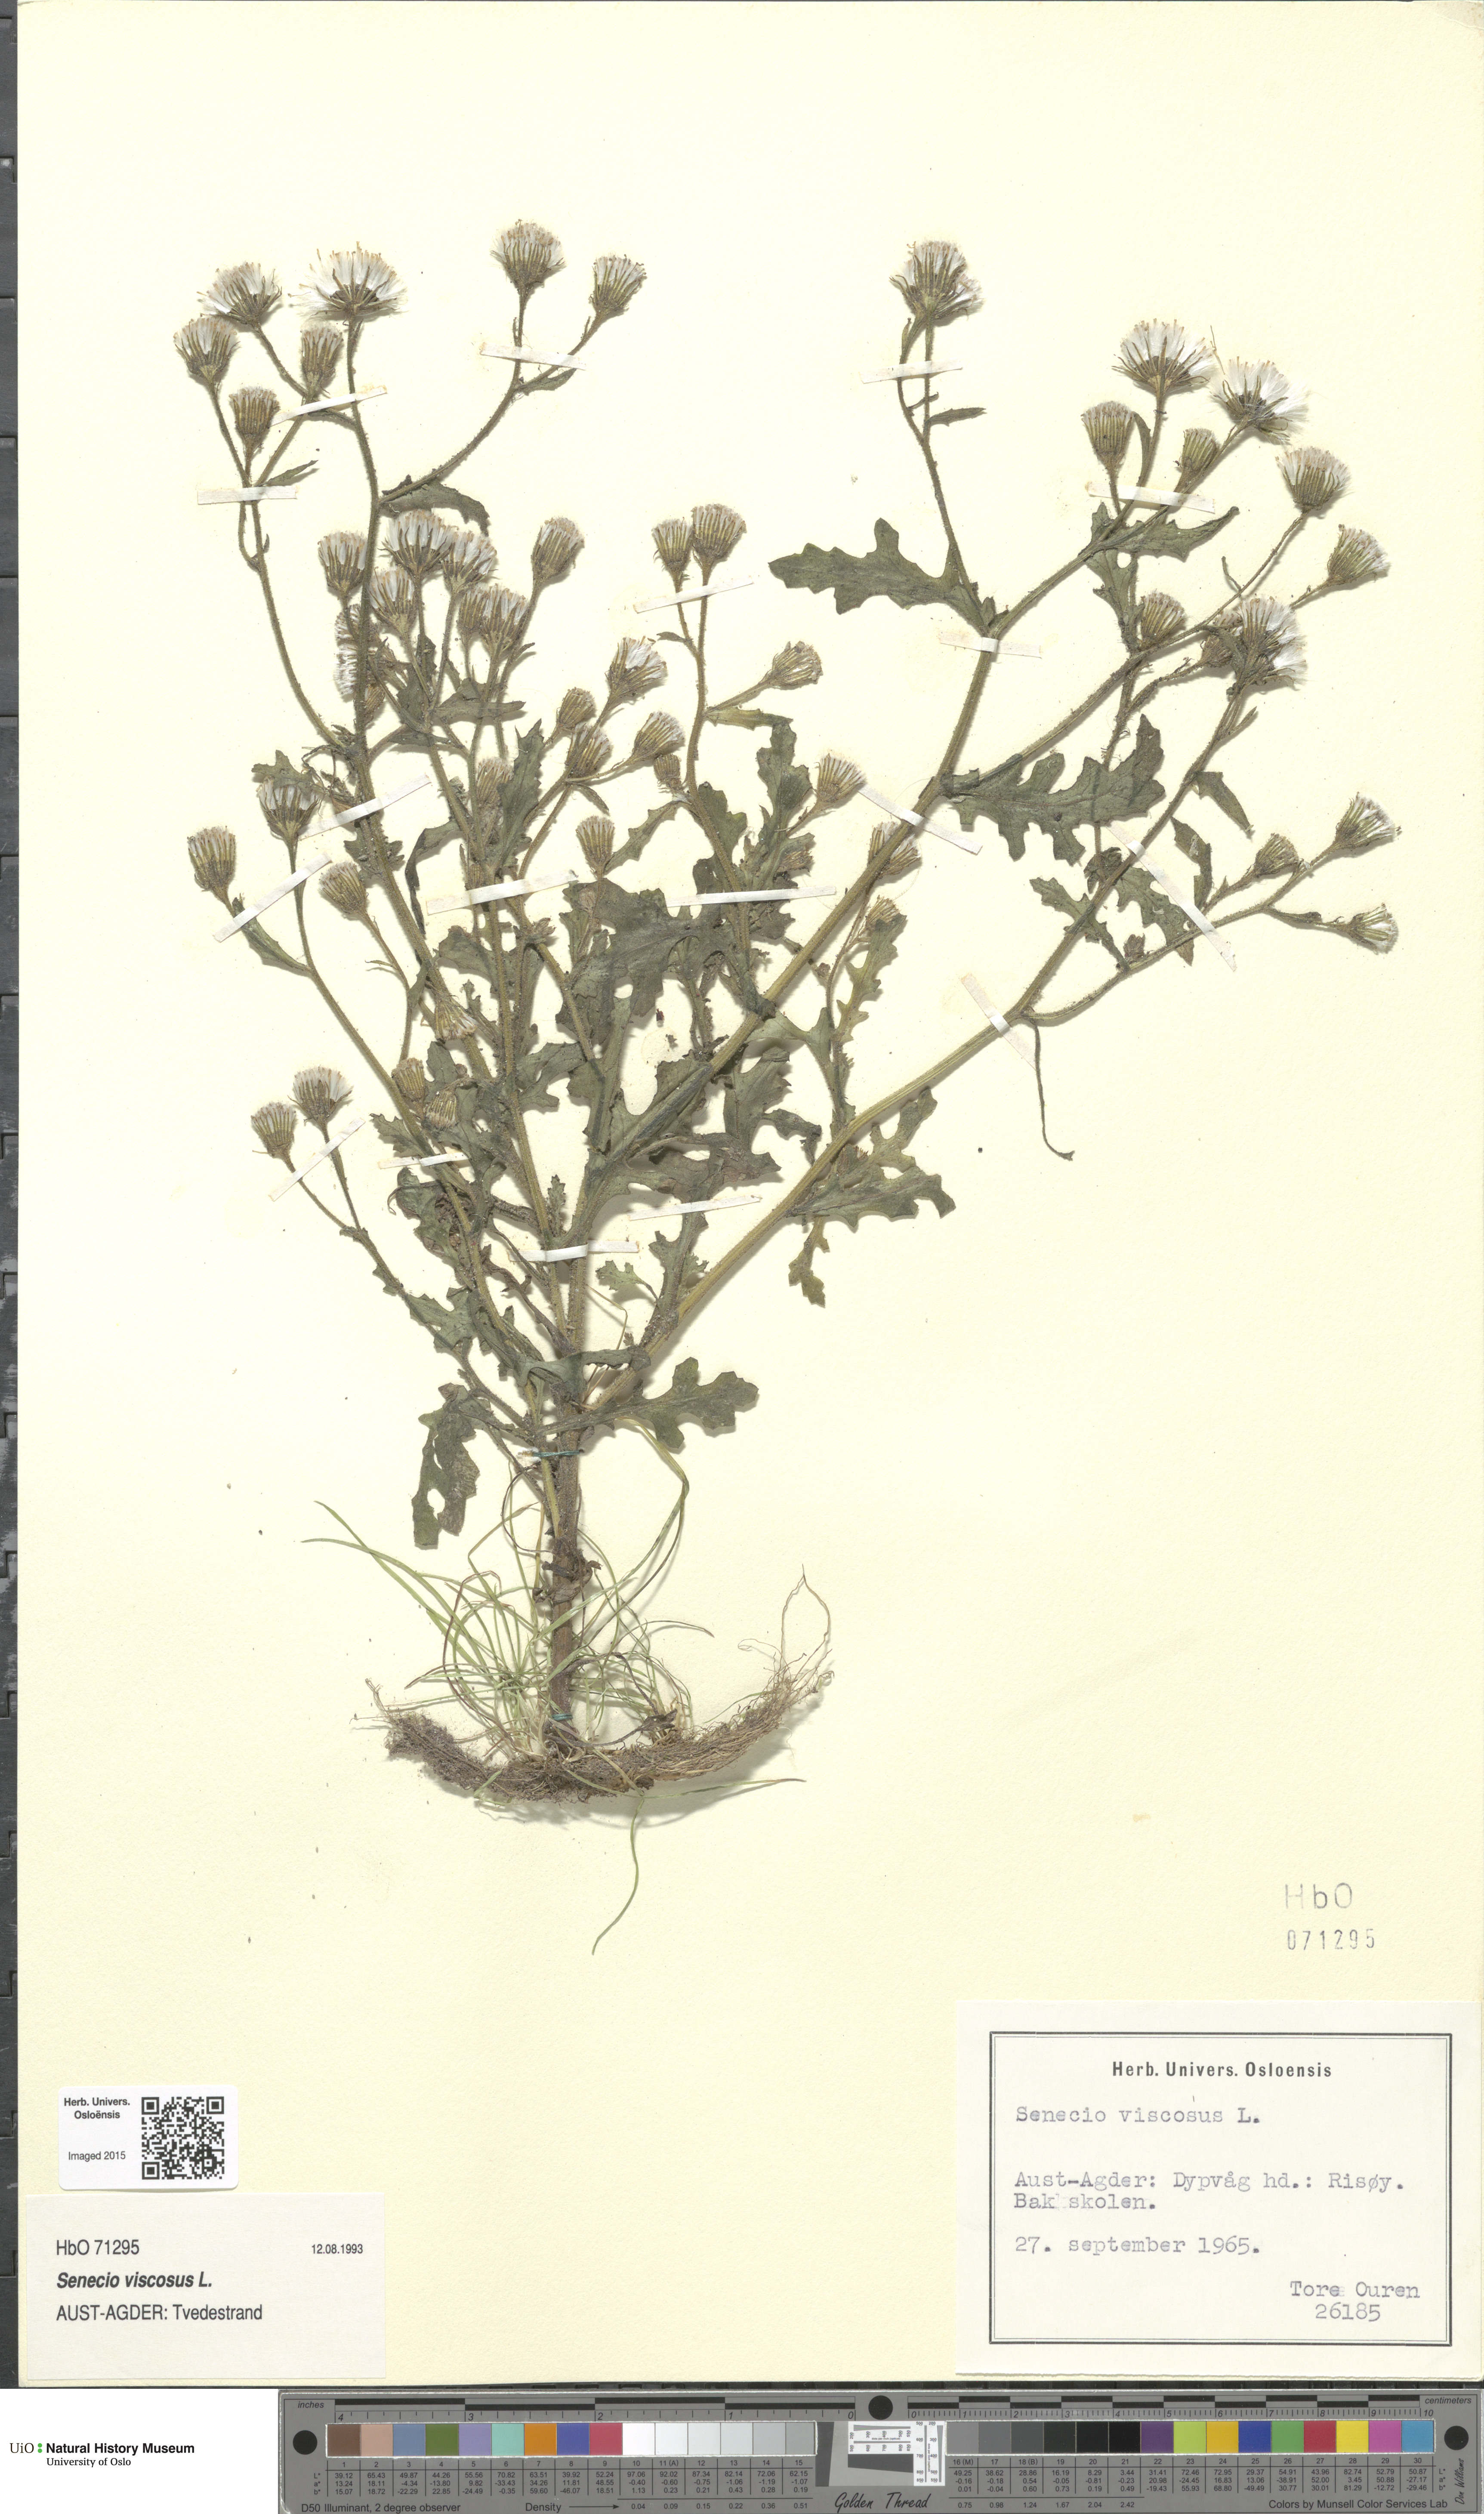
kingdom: Plantae
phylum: Tracheophyta
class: Magnoliopsida
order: Asterales
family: Asteraceae
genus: Senecio
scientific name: Senecio viscosus
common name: Sticky groundsel
